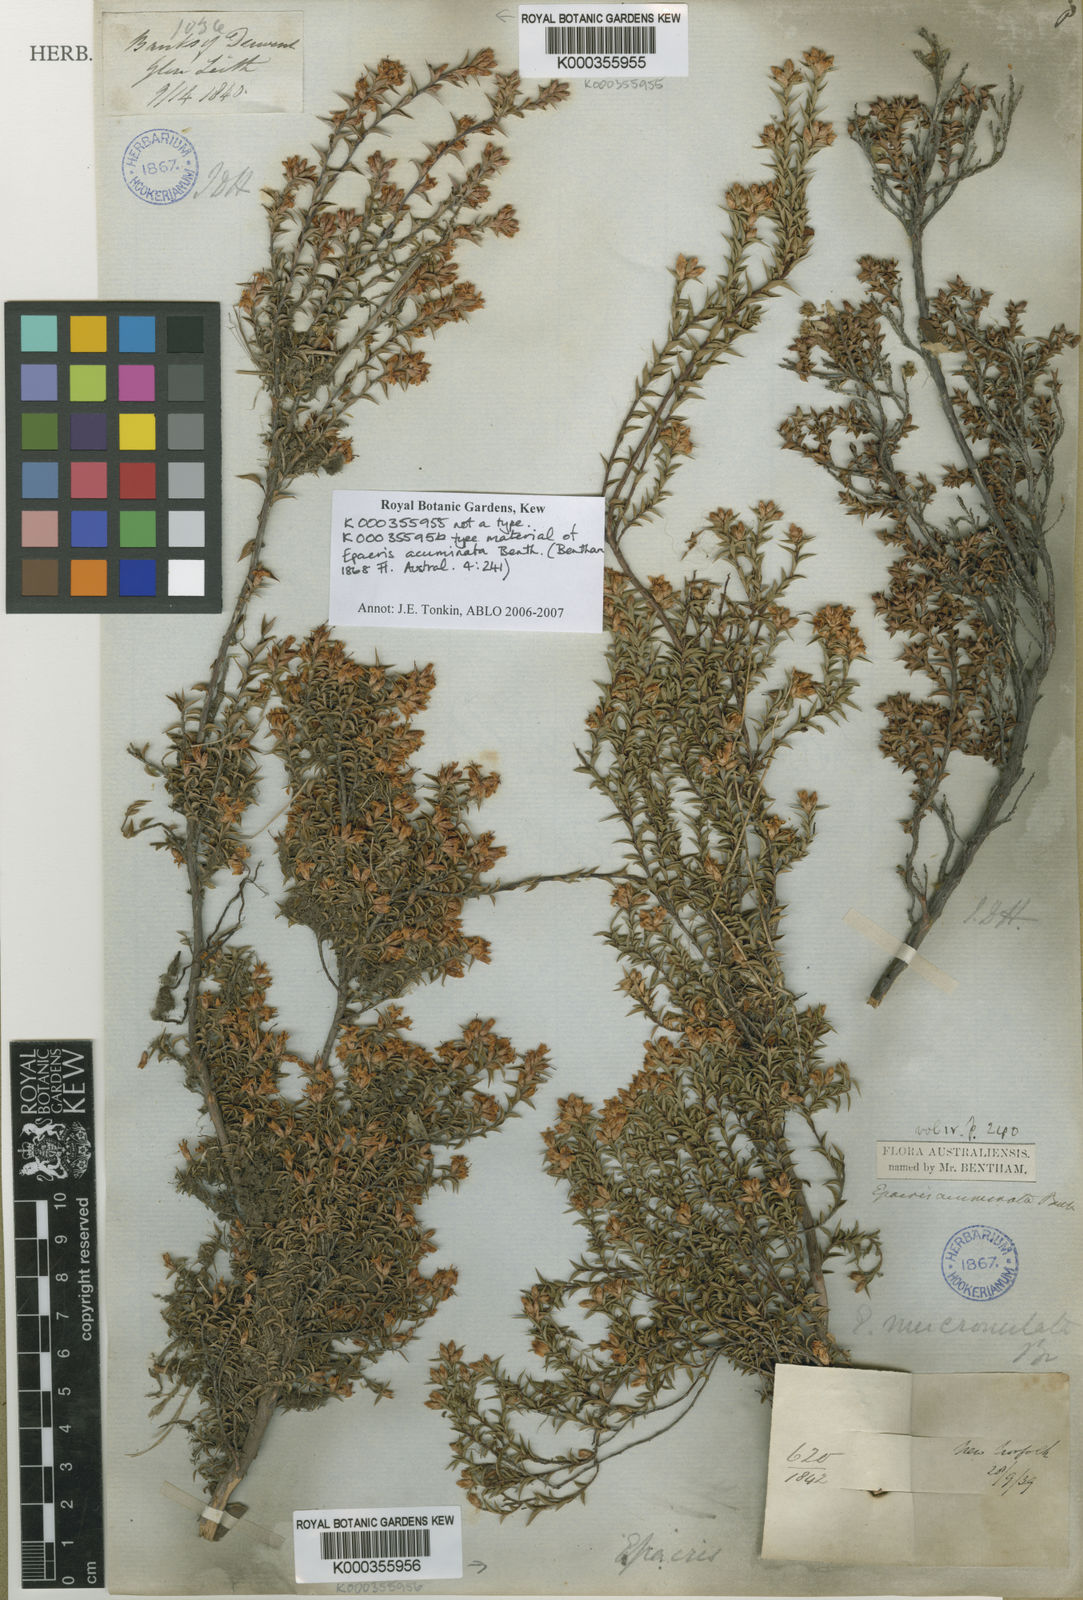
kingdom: Plantae
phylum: Tracheophyta
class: Magnoliopsida
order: Ericales
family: Ericaceae
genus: Epacris
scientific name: Epacris acuminata
